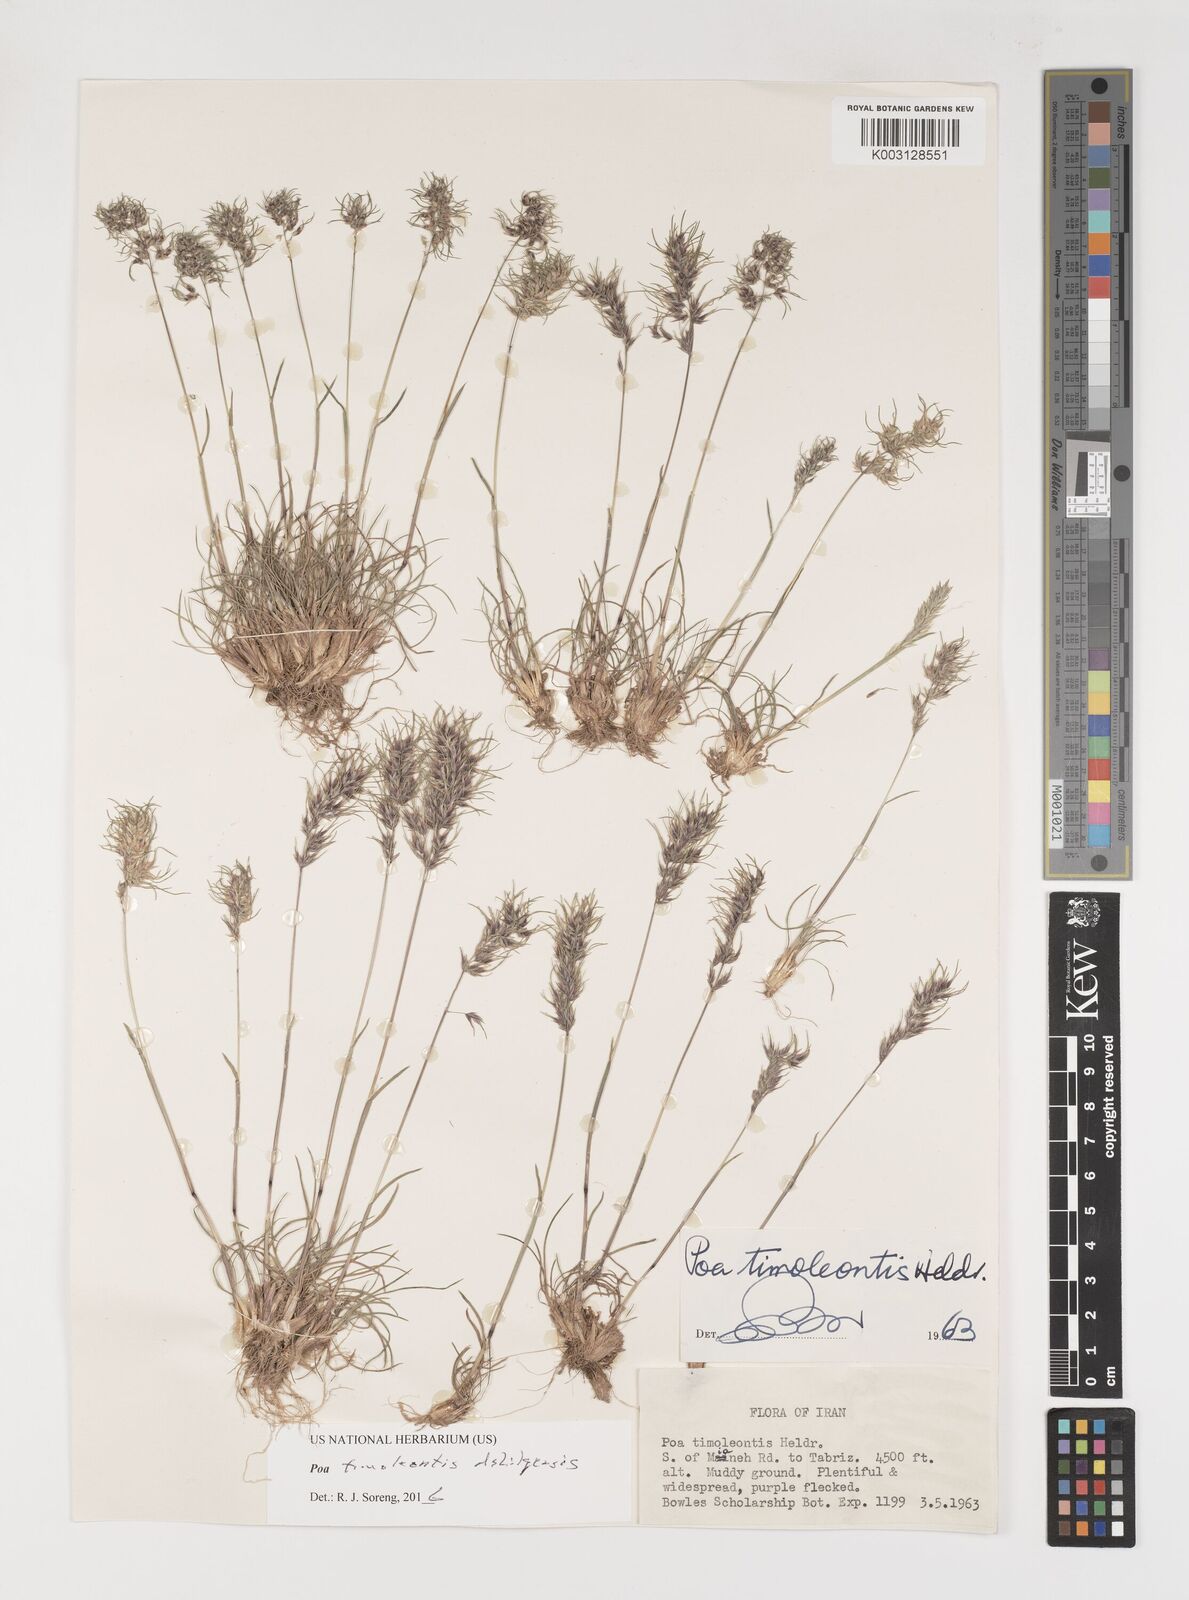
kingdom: Plantae
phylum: Tracheophyta
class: Liliopsida
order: Poales
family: Poaceae
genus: Poa
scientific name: Poa timoleontis
